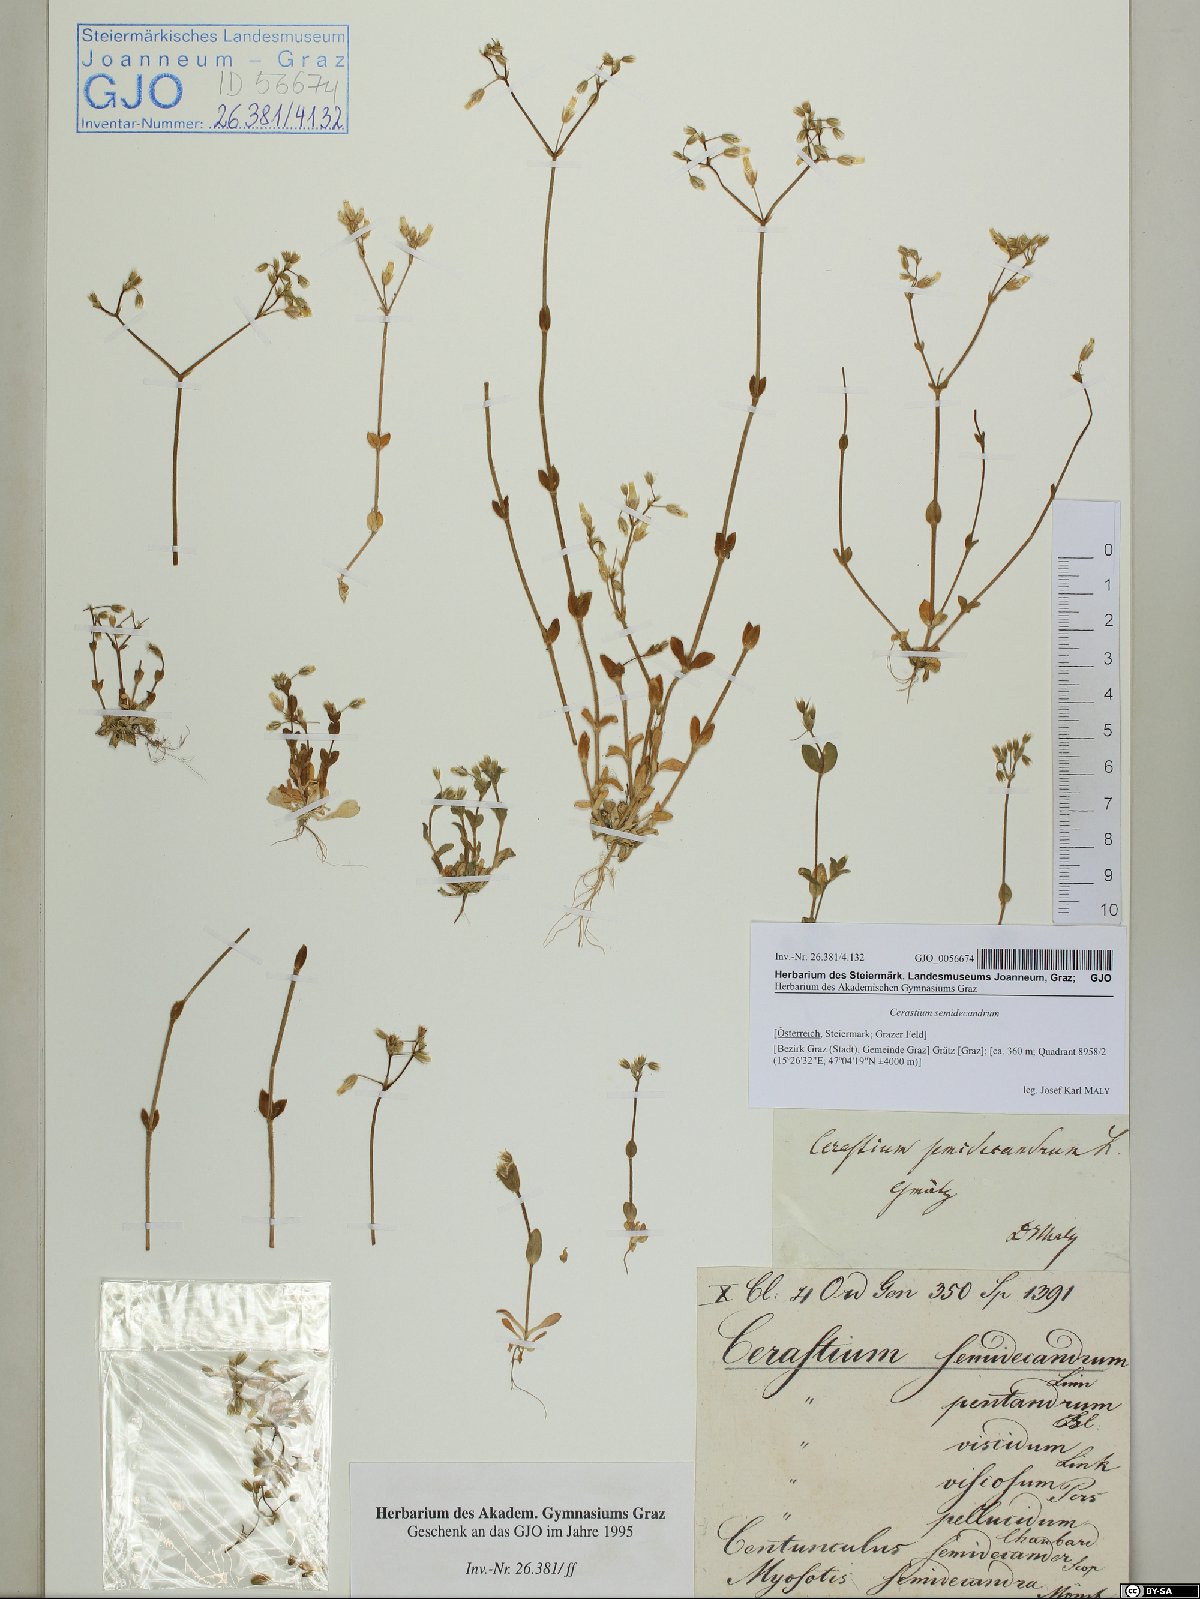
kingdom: Plantae
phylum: Tracheophyta
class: Magnoliopsida
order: Caryophyllales
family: Caryophyllaceae
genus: Cerastium
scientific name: Cerastium semidecandrum
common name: Little mouse-ear
